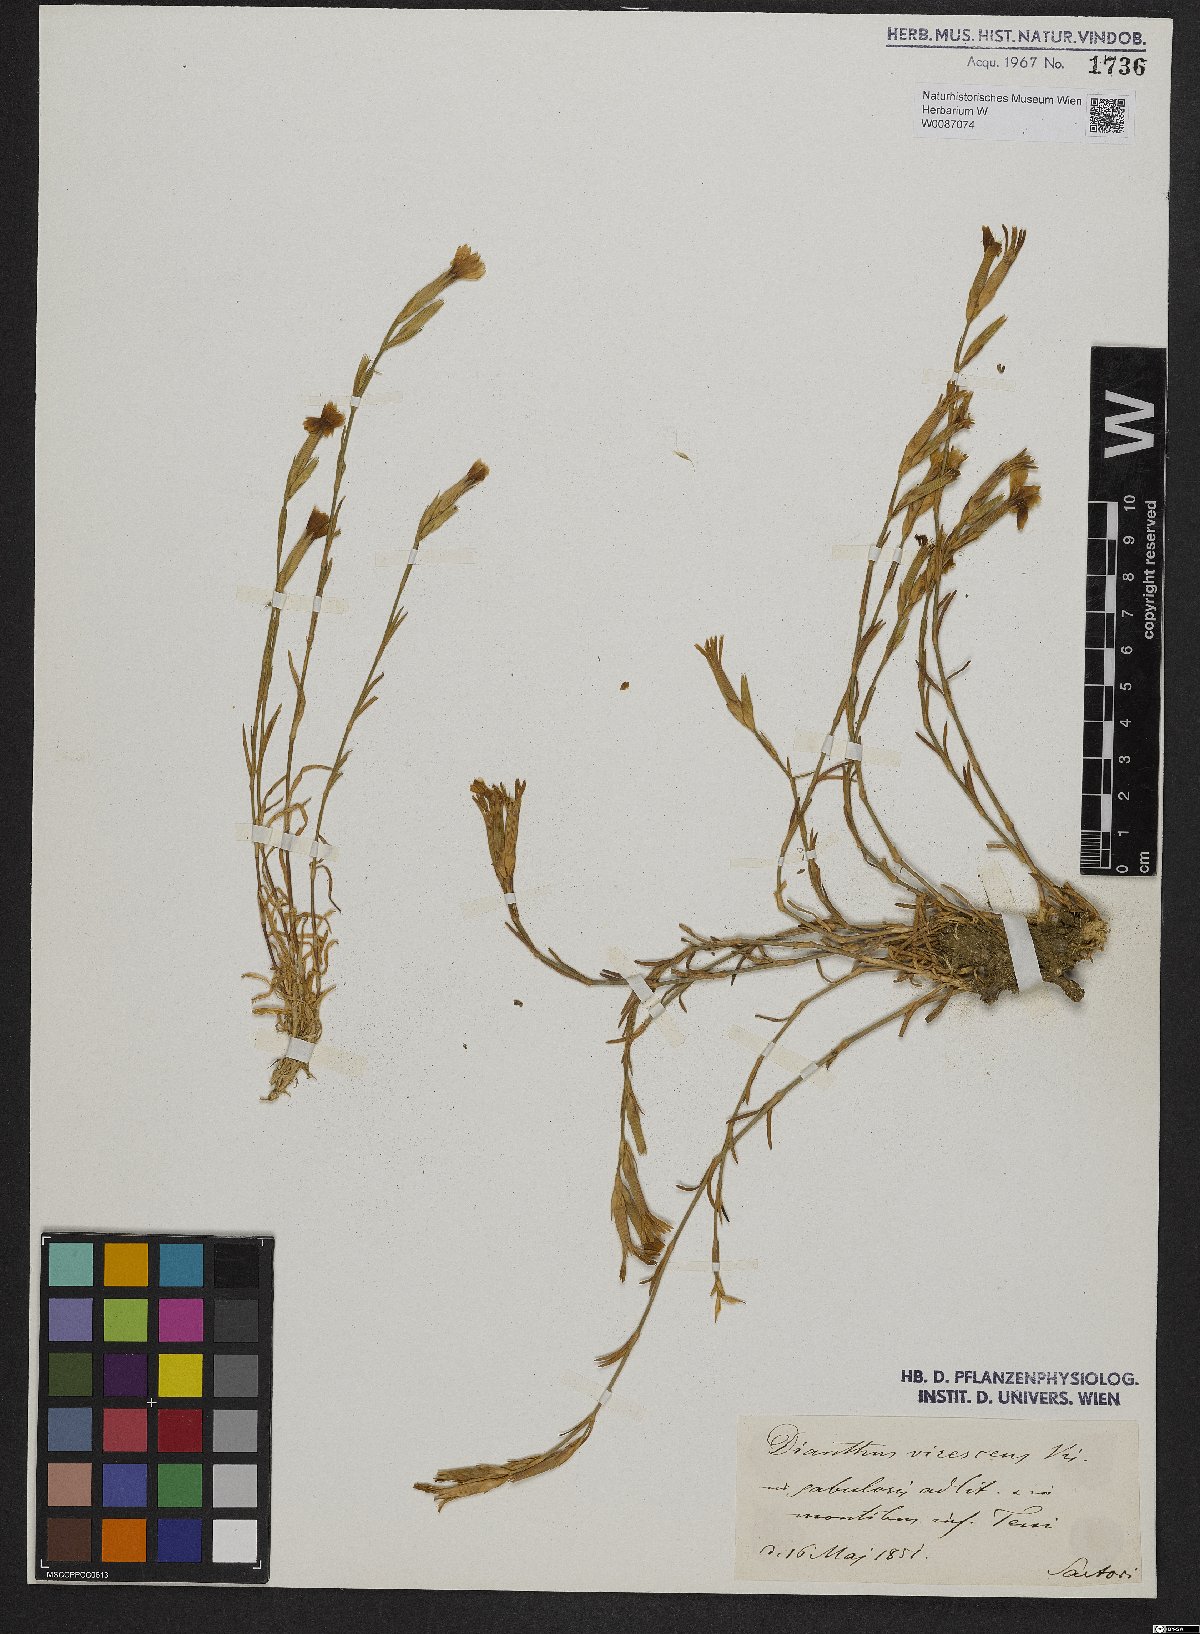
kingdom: Plantae
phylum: Tracheophyta
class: Magnoliopsida
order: Caryophyllales
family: Caryophyllaceae
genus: Dianthus
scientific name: Dianthus viridescens
